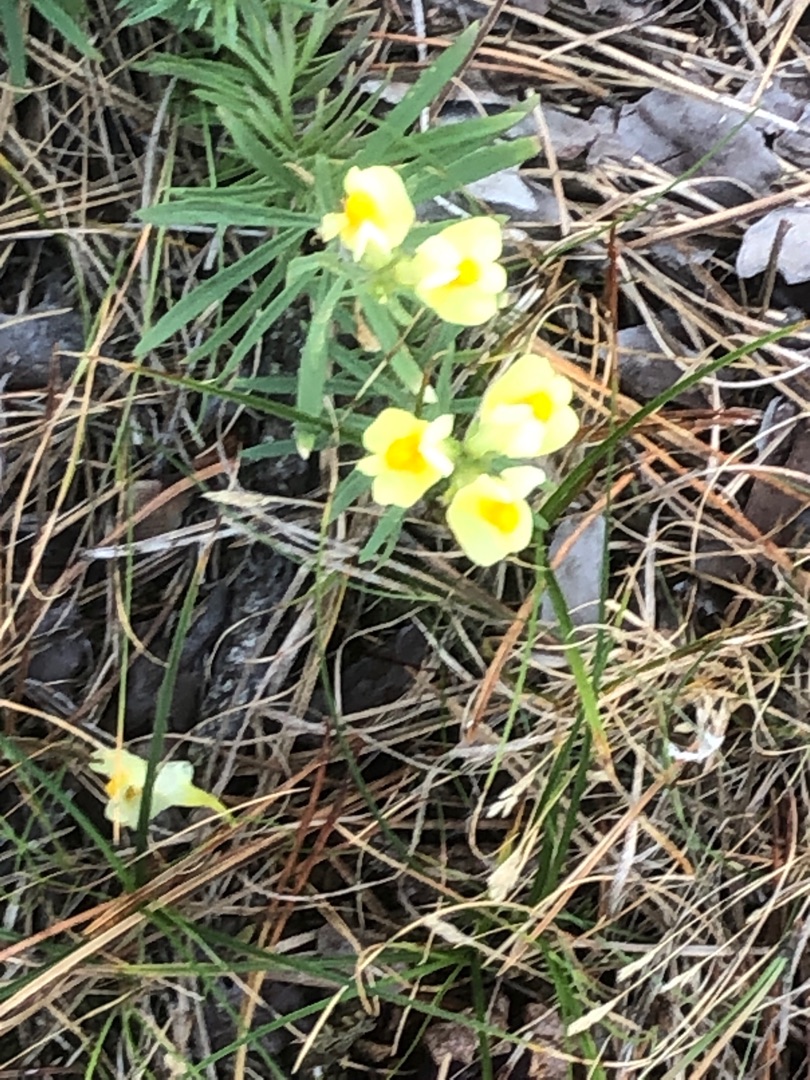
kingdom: Plantae
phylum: Tracheophyta
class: Magnoliopsida
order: Lamiales
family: Plantaginaceae
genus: Linaria
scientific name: Linaria vulgaris
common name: Almindelig torskemund
